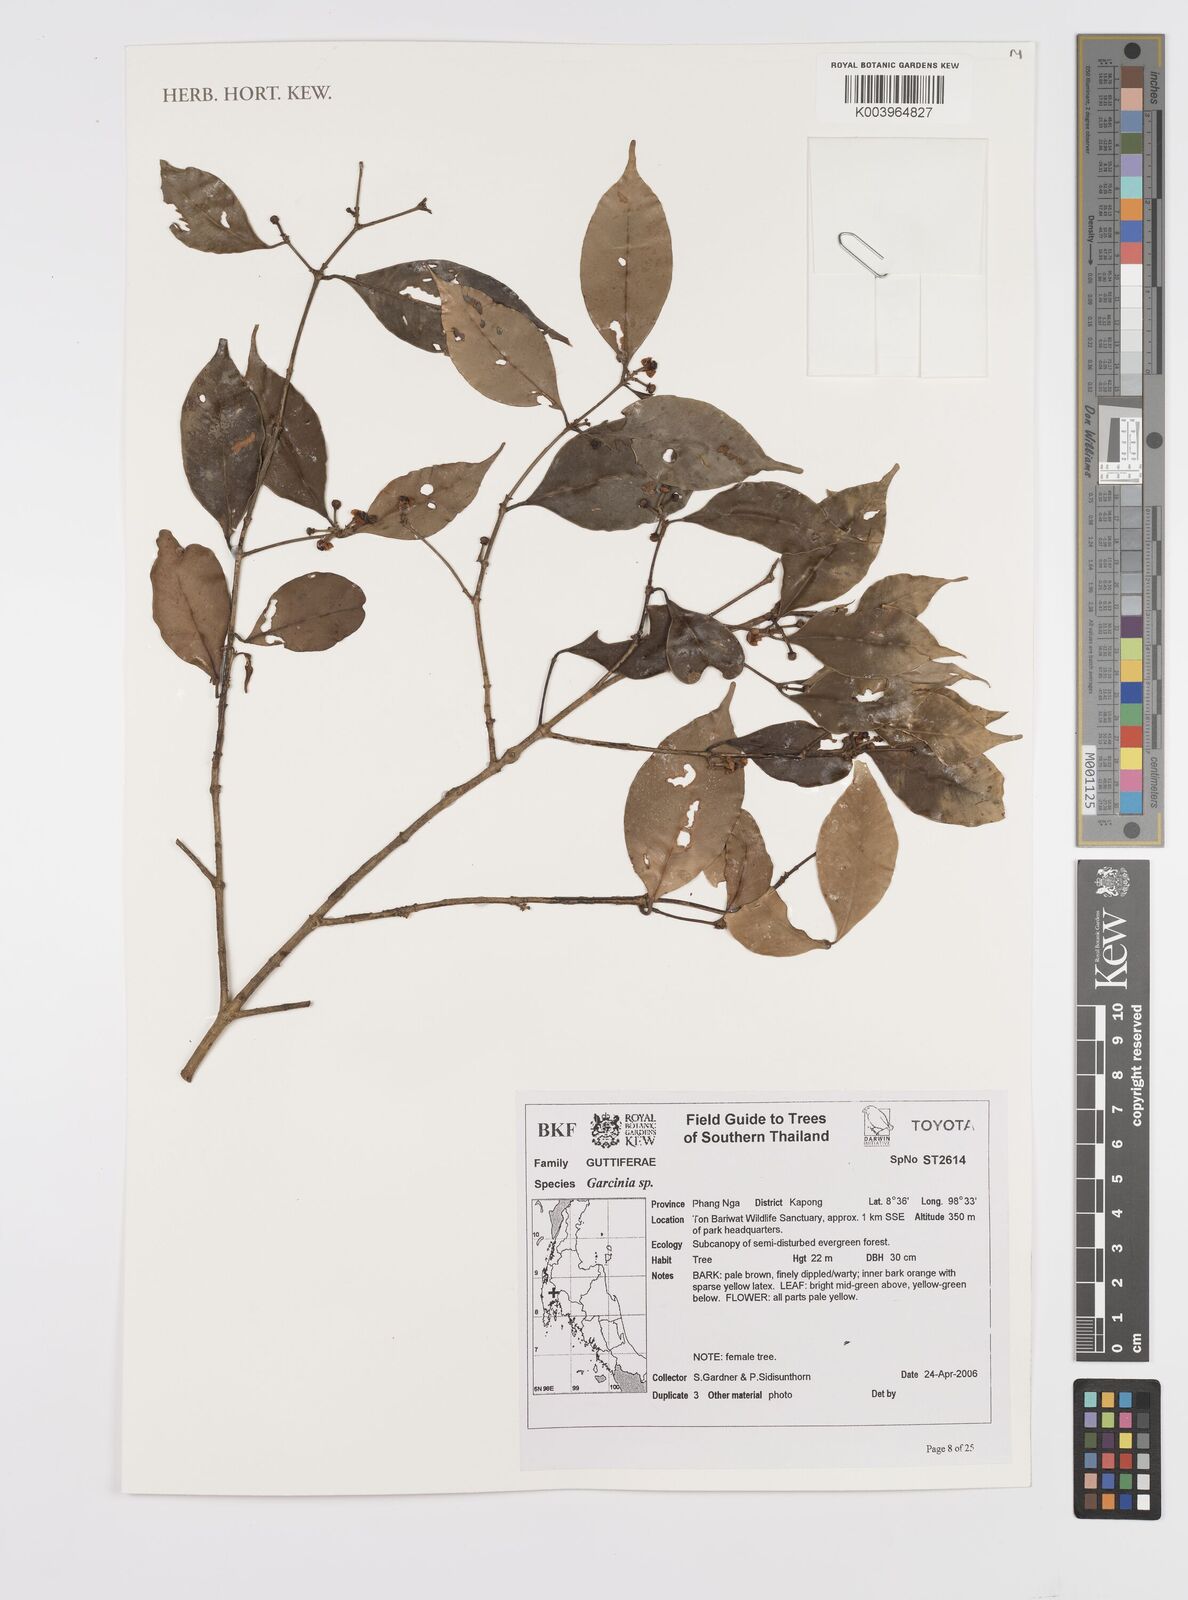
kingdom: Plantae
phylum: Tracheophyta
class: Magnoliopsida
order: Malpighiales
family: Clusiaceae
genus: Garcinia
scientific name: Garcinia
